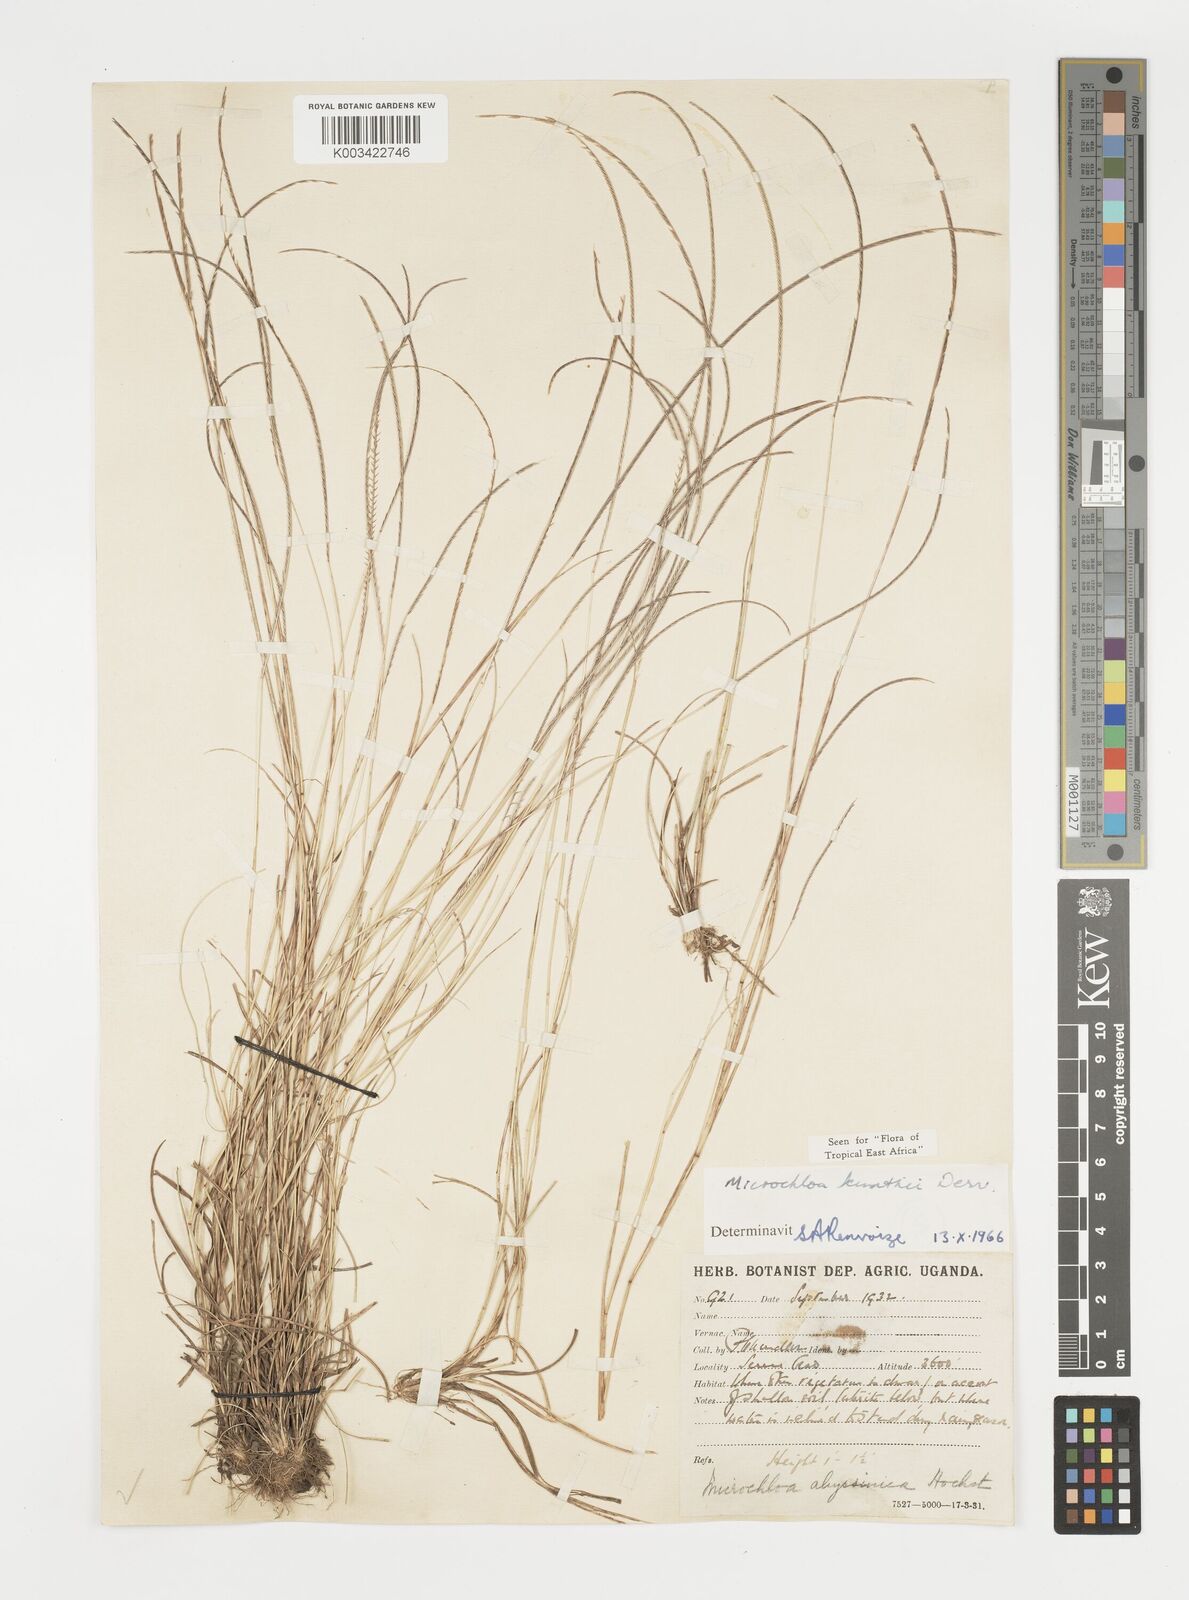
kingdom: Plantae
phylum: Tracheophyta
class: Liliopsida
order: Poales
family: Poaceae
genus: Microchloa
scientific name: Microchloa kunthii
